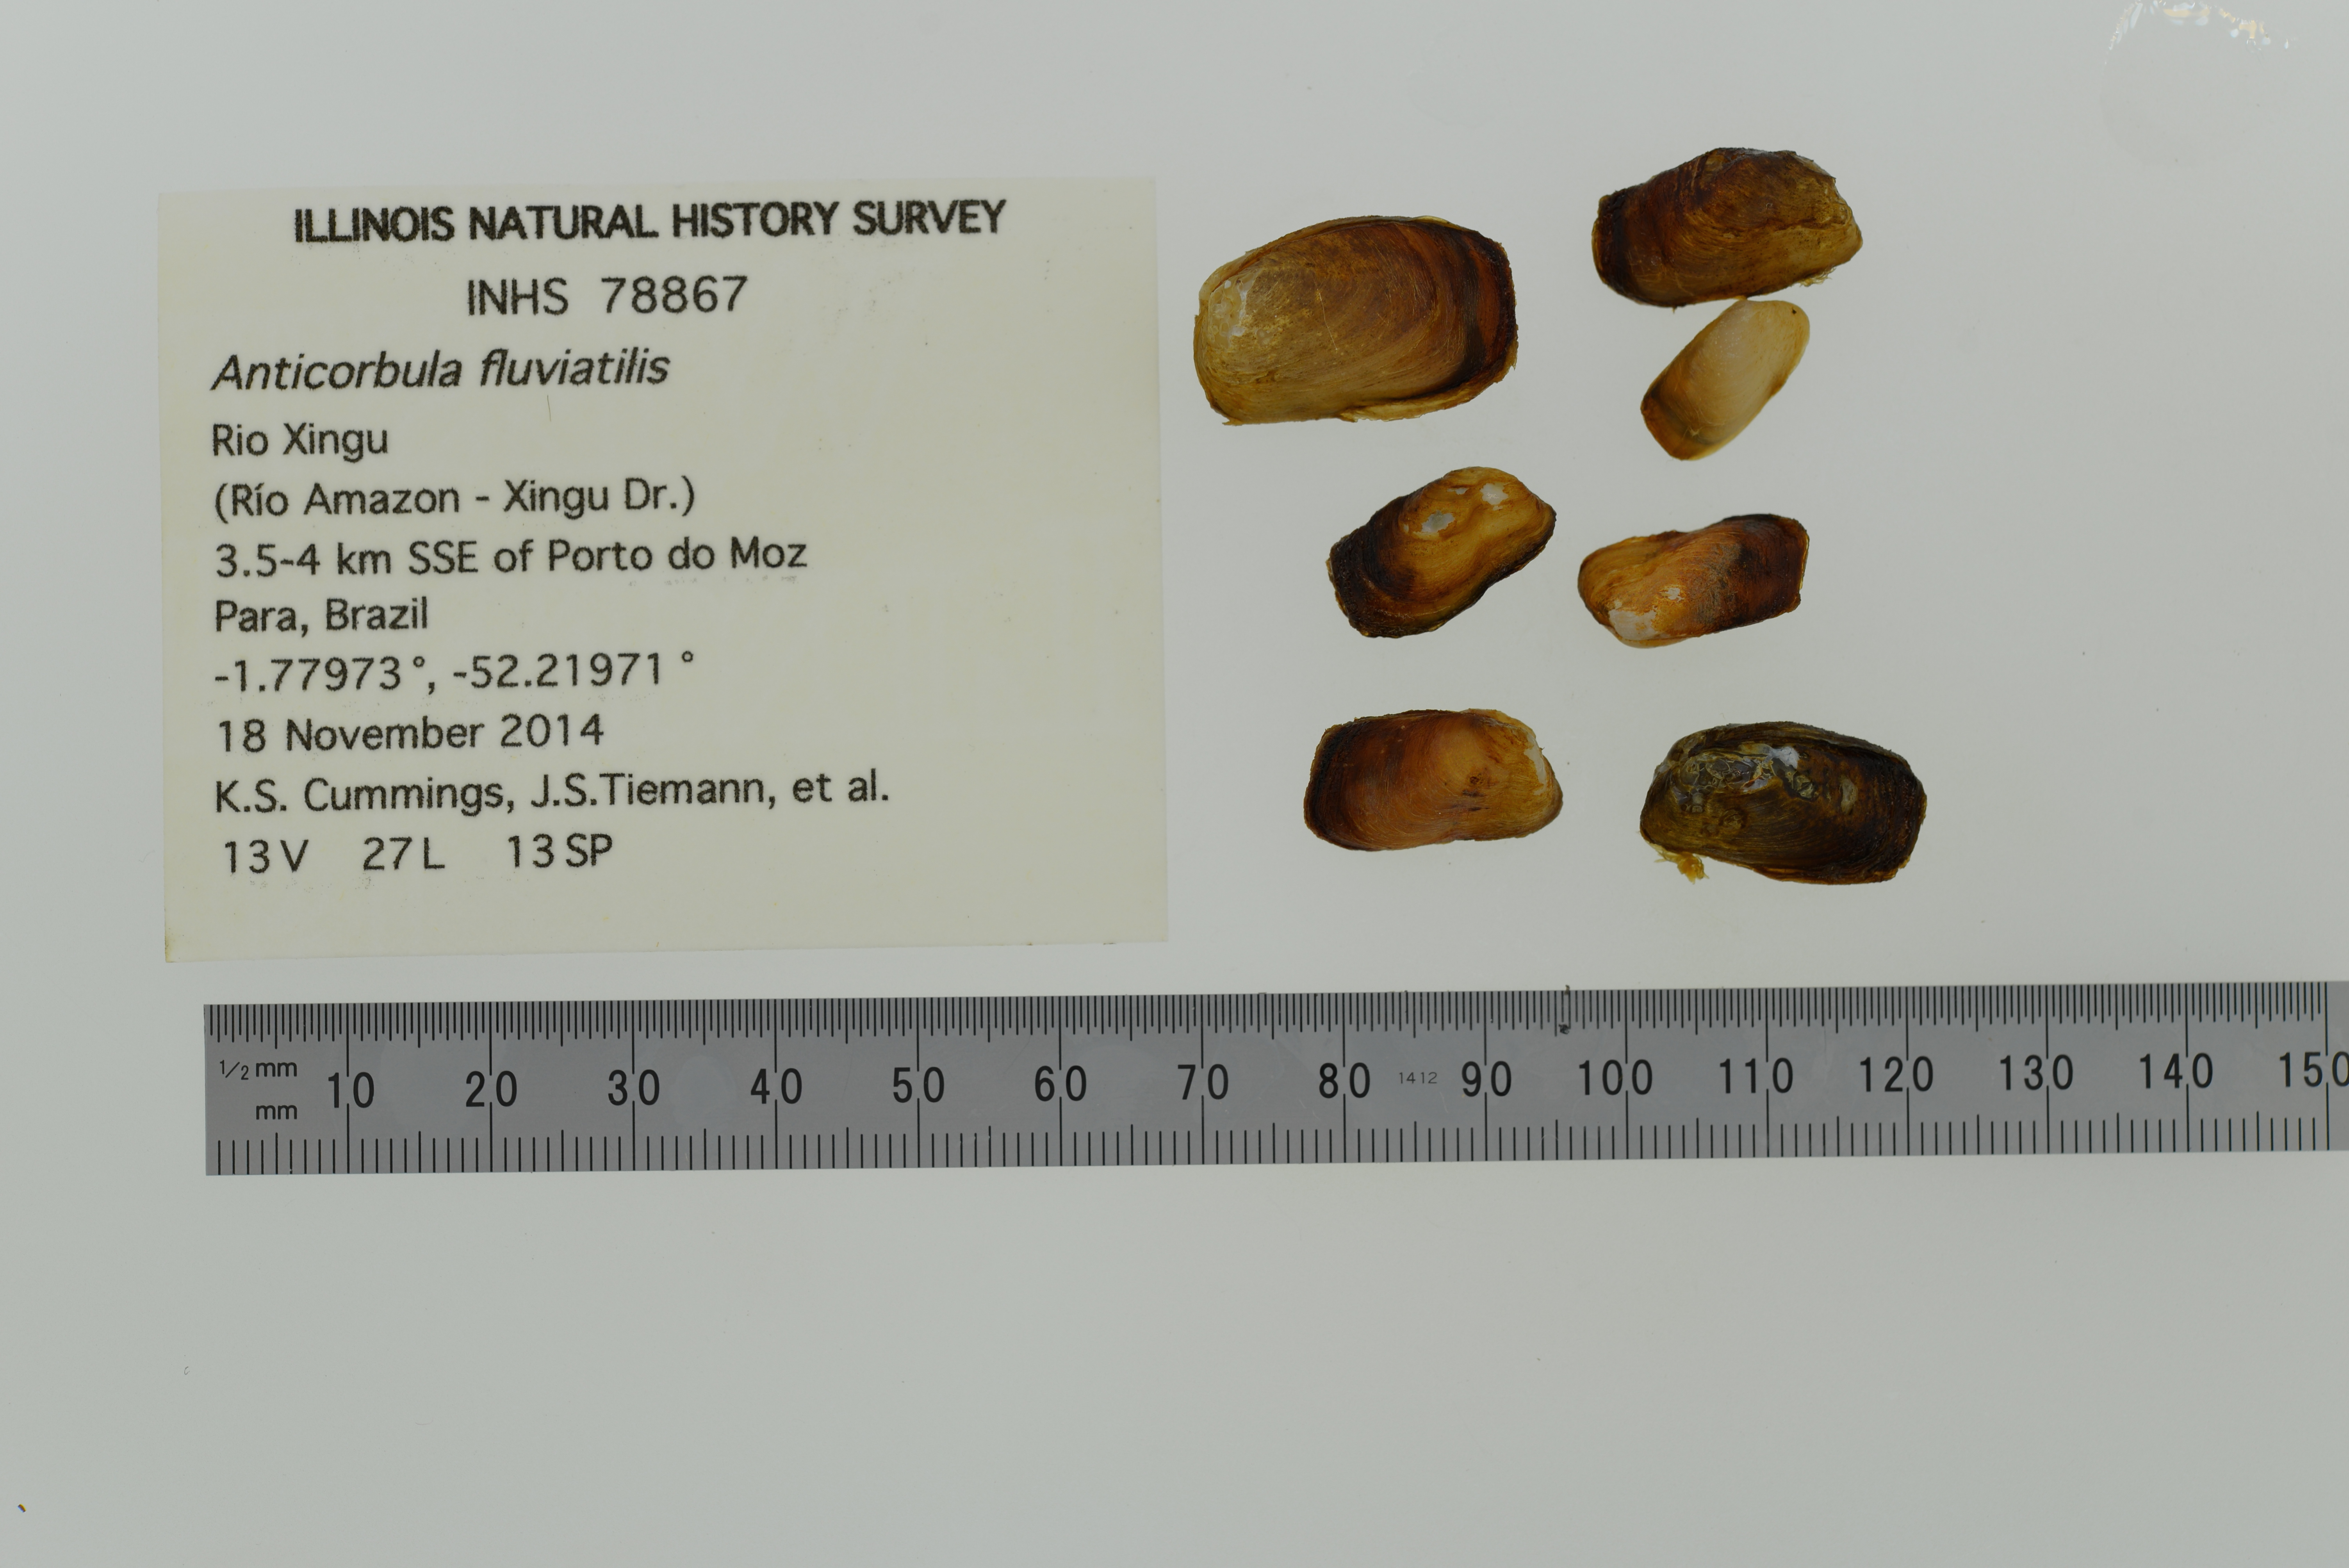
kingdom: Animalia
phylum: Mollusca
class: Bivalvia
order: Myida
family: Corbulidae
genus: Anticorbula
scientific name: Anticorbula fluviatilis
